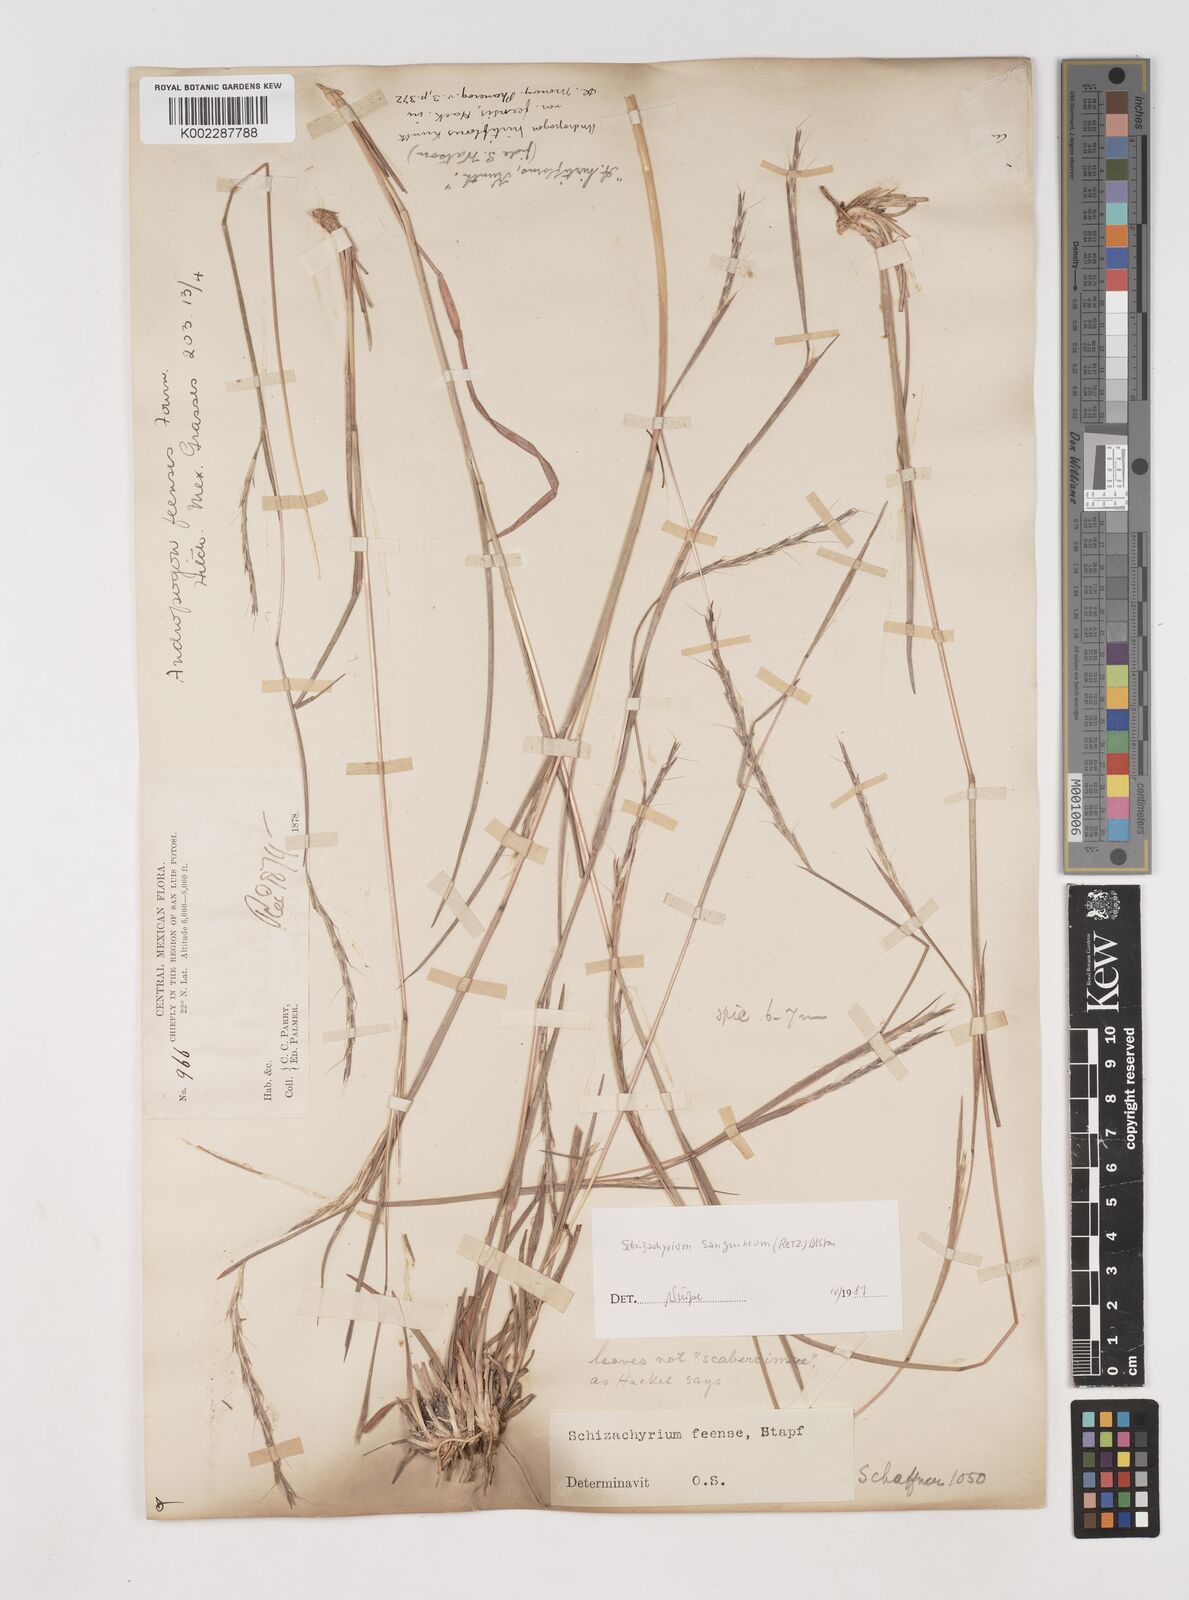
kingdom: Plantae
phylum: Tracheophyta
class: Liliopsida
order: Poales
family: Poaceae
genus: Schizachyrium
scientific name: Schizachyrium sanguineum
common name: Crimson bluestem
